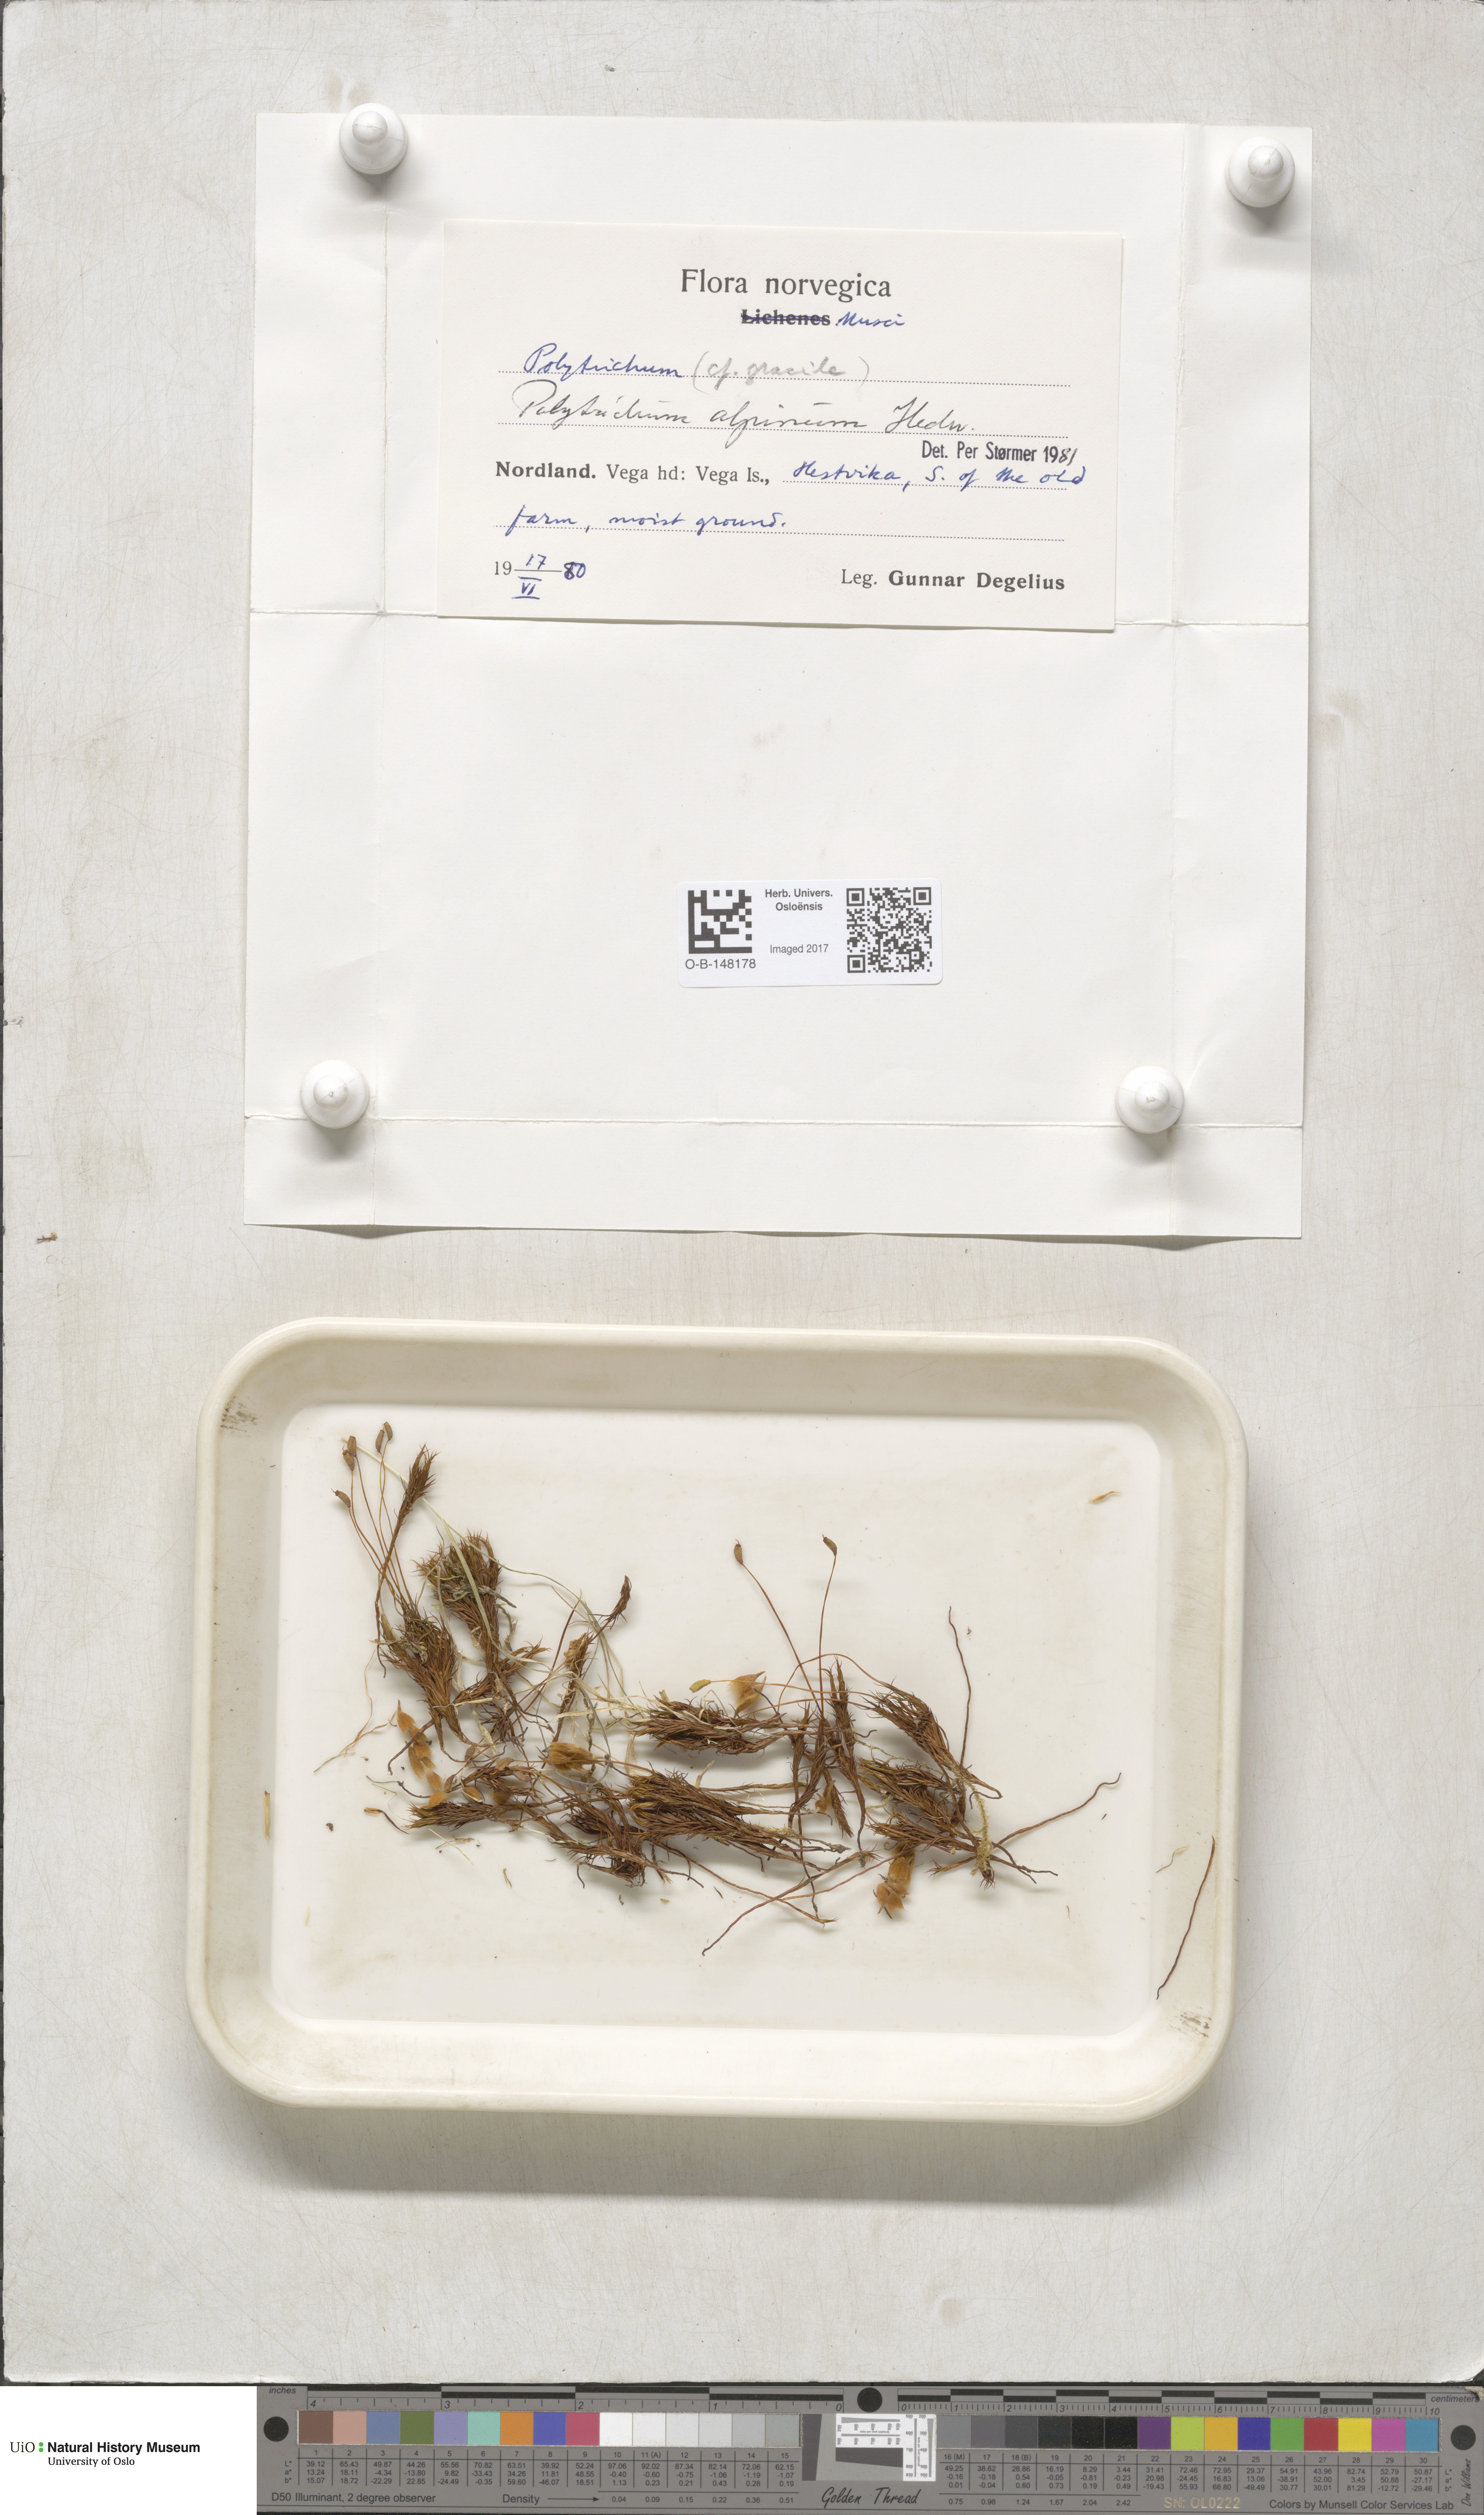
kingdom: Plantae
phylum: Bryophyta
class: Polytrichopsida
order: Polytrichales
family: Polytrichaceae
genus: Polytrichastrum
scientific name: Polytrichastrum alpinum
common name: Alpine haircap
